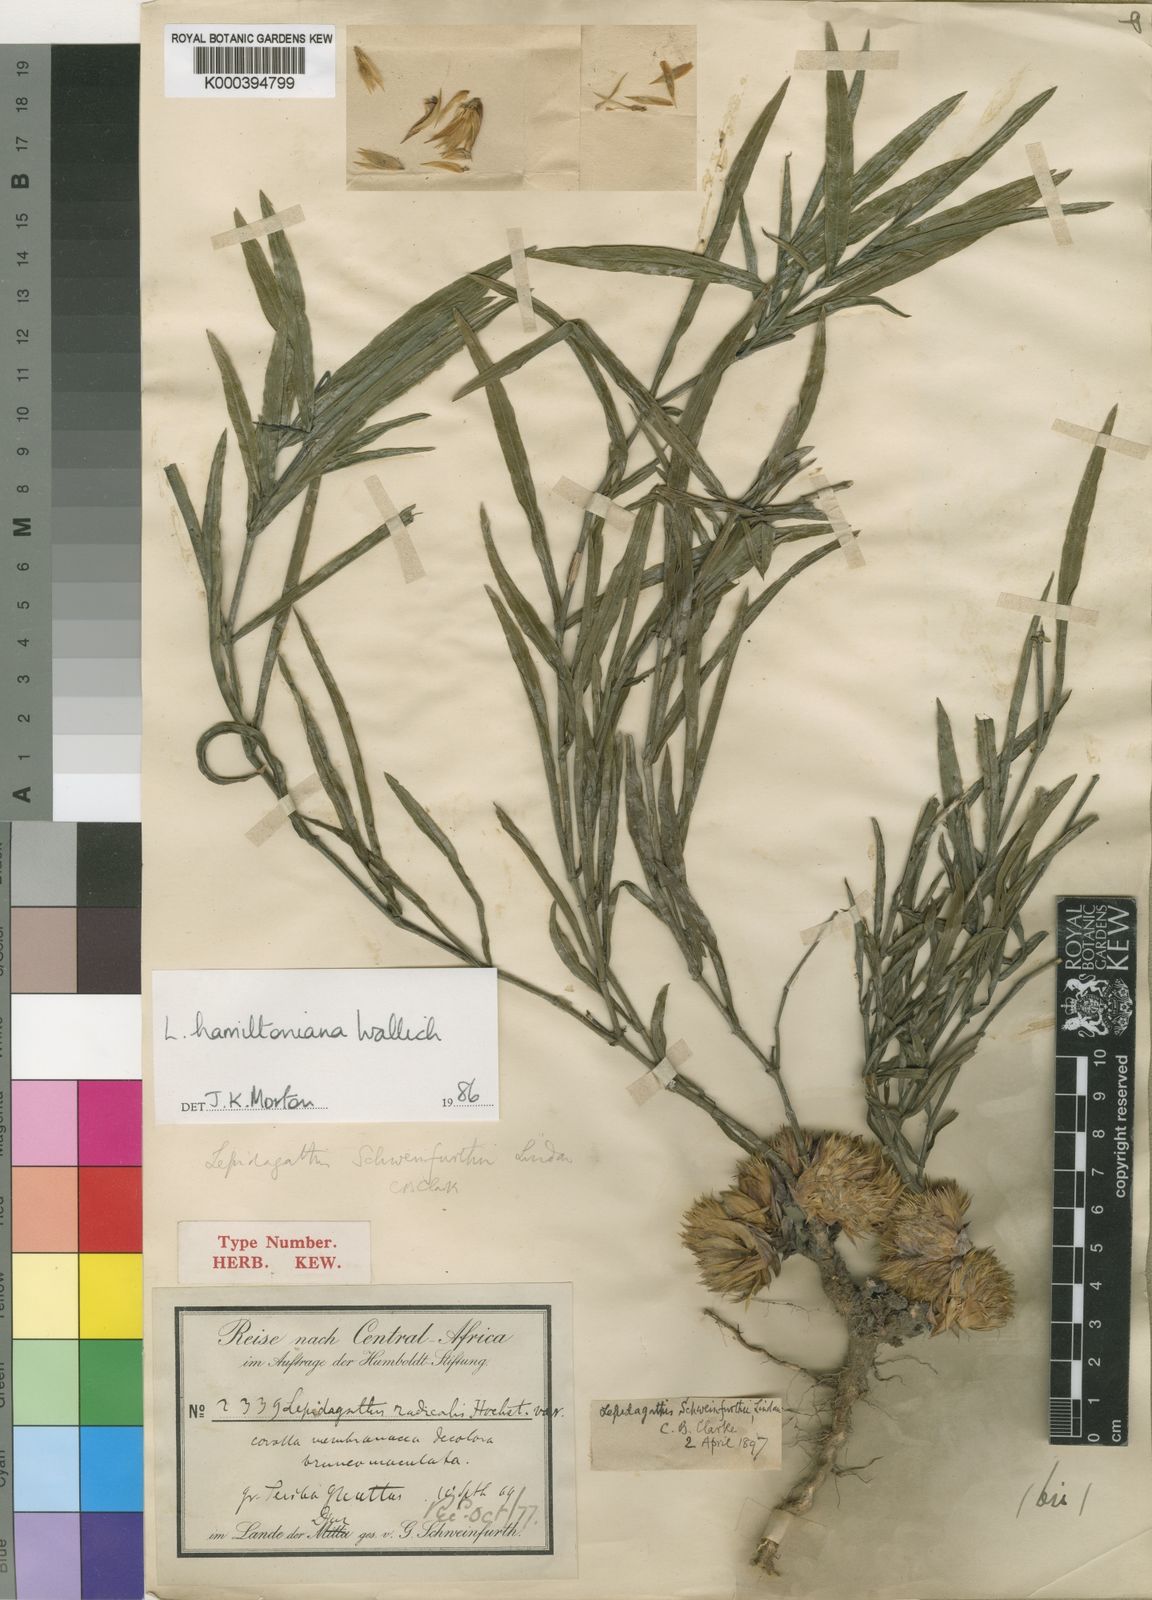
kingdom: Plantae
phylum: Tracheophyta
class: Magnoliopsida
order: Lamiales
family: Acanthaceae
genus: Lepidagathis
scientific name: Lepidagathis hamiltoniana
